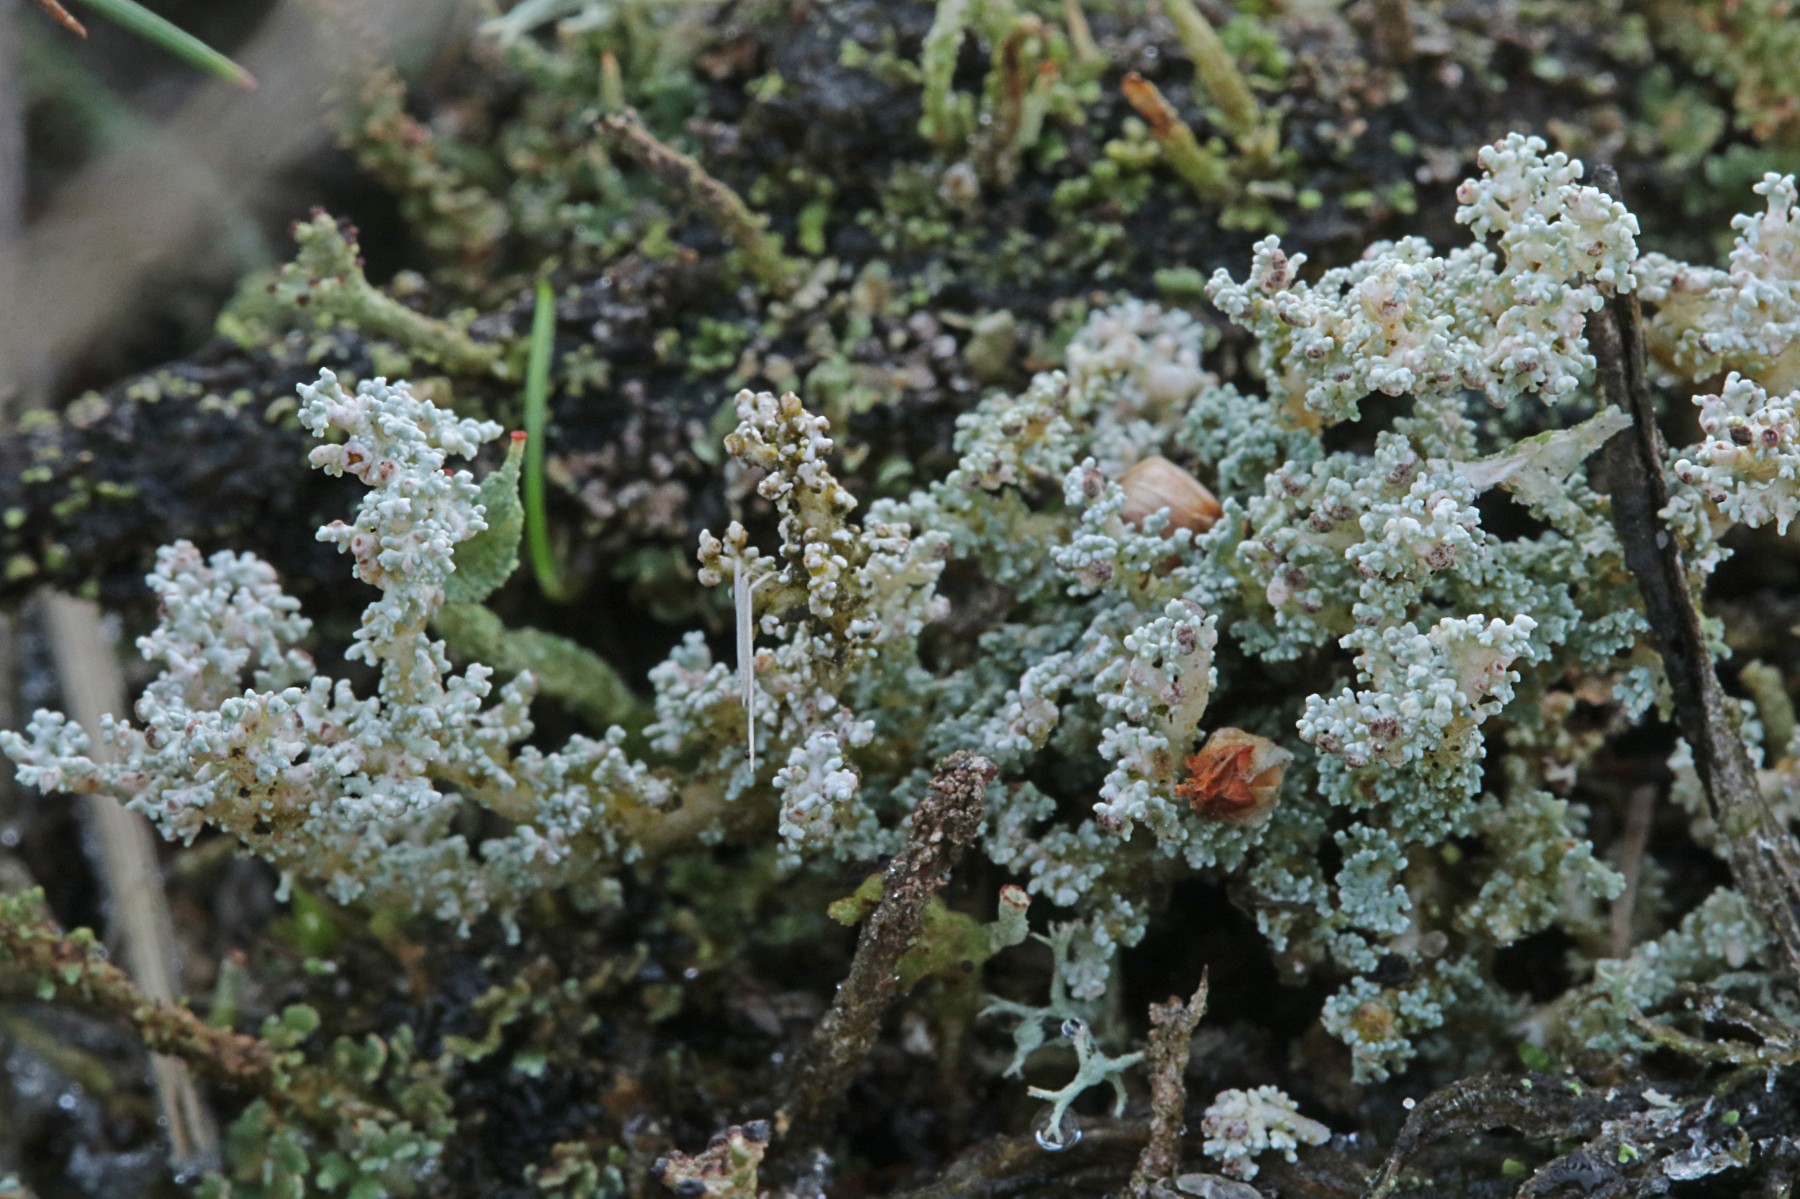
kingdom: Fungi
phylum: Ascomycota
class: Lecanoromycetes
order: Lecanorales
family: Stereocaulaceae
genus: Stereocaulon
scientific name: Stereocaulon saxatile
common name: klit-korallav
